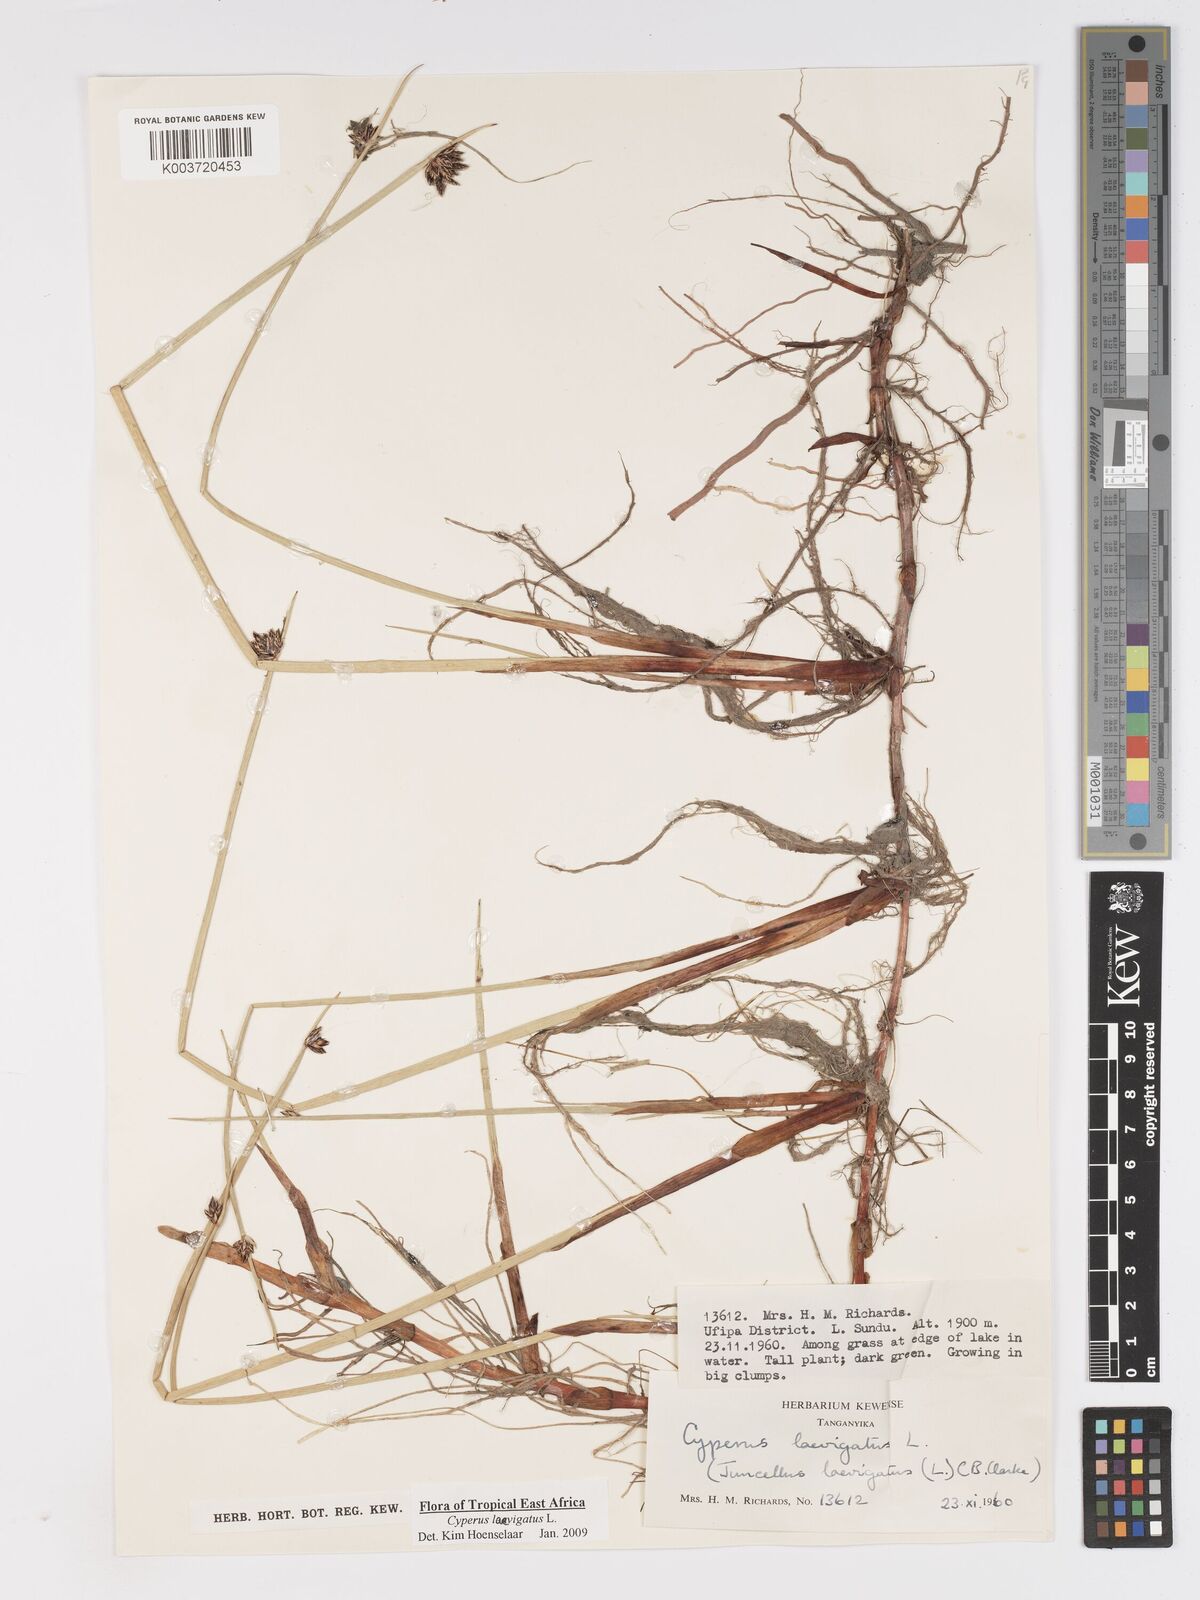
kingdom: Plantae
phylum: Tracheophyta
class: Liliopsida
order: Poales
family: Cyperaceae
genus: Cyperus
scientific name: Cyperus laevigatus
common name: Smooth flat sedge
